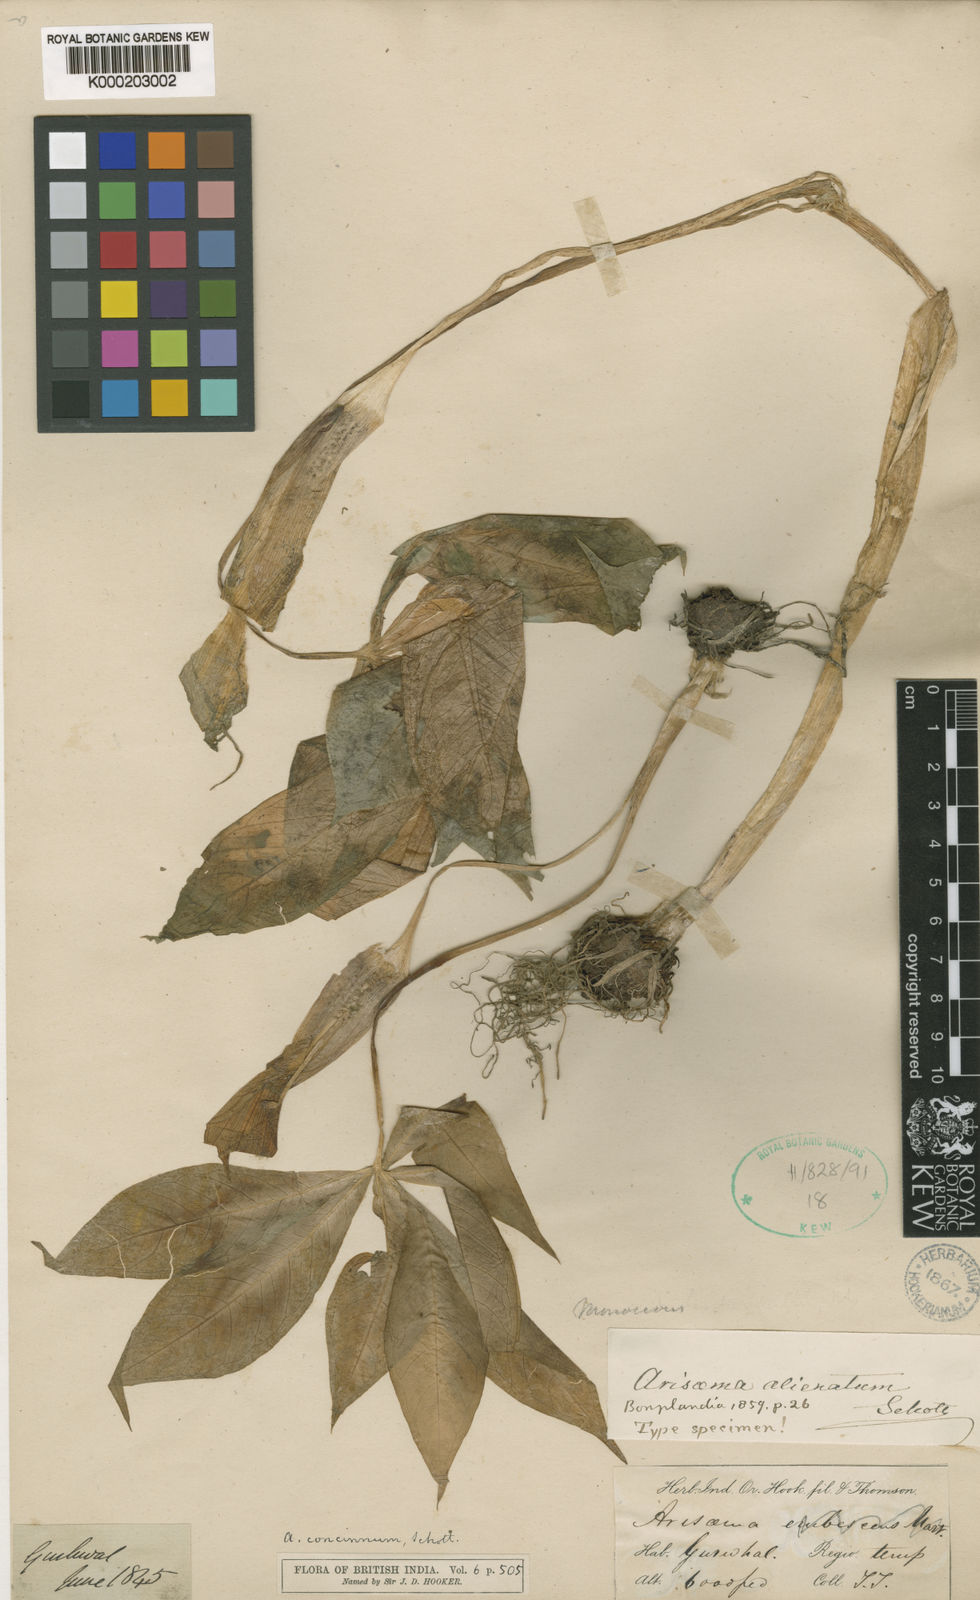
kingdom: Plantae
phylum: Tracheophyta
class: Liliopsida
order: Alismatales
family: Araceae
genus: Arisaema
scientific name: Arisaema concinnum
